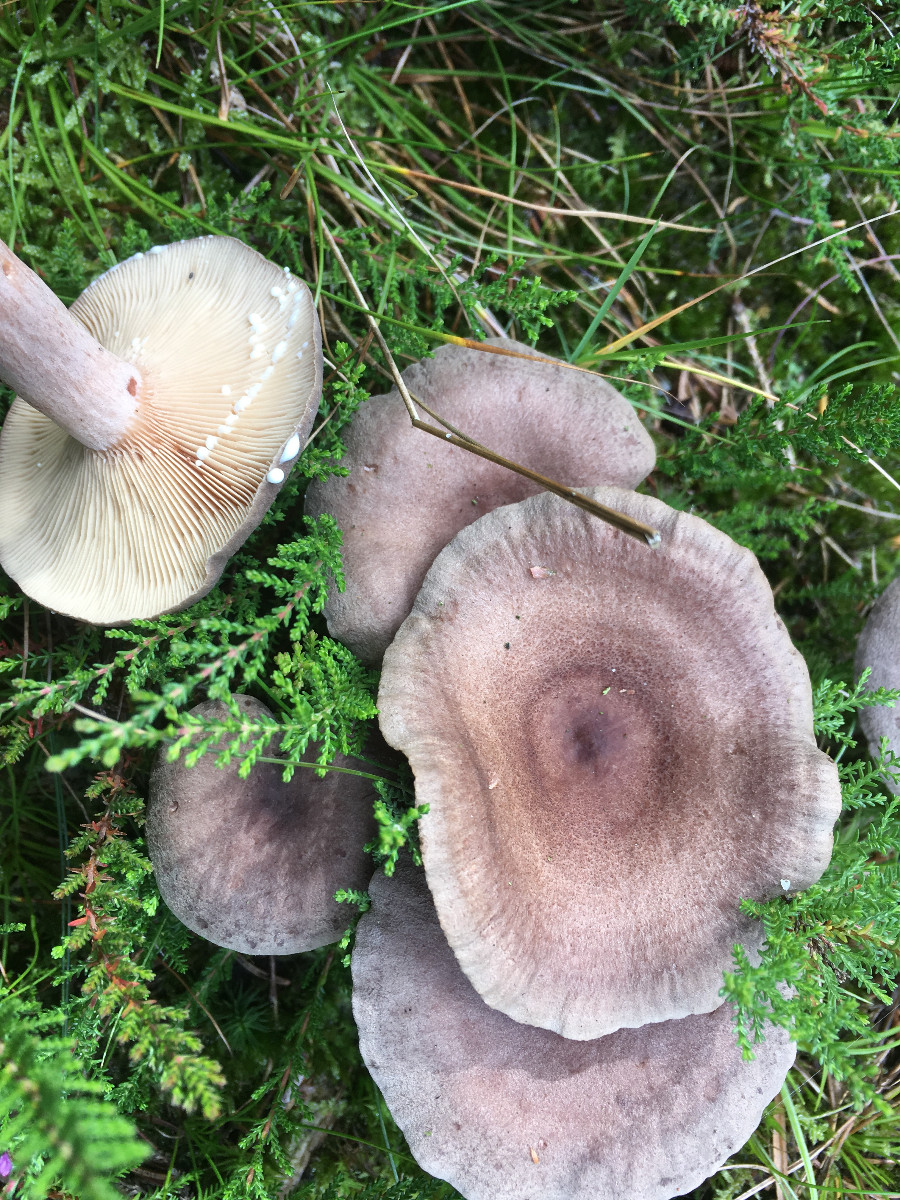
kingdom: Fungi
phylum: Basidiomycota
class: Agaricomycetes
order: Russulales
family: Russulaceae
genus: Lactarius
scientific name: Lactarius mammosus
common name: kokosbrun mælkehat
